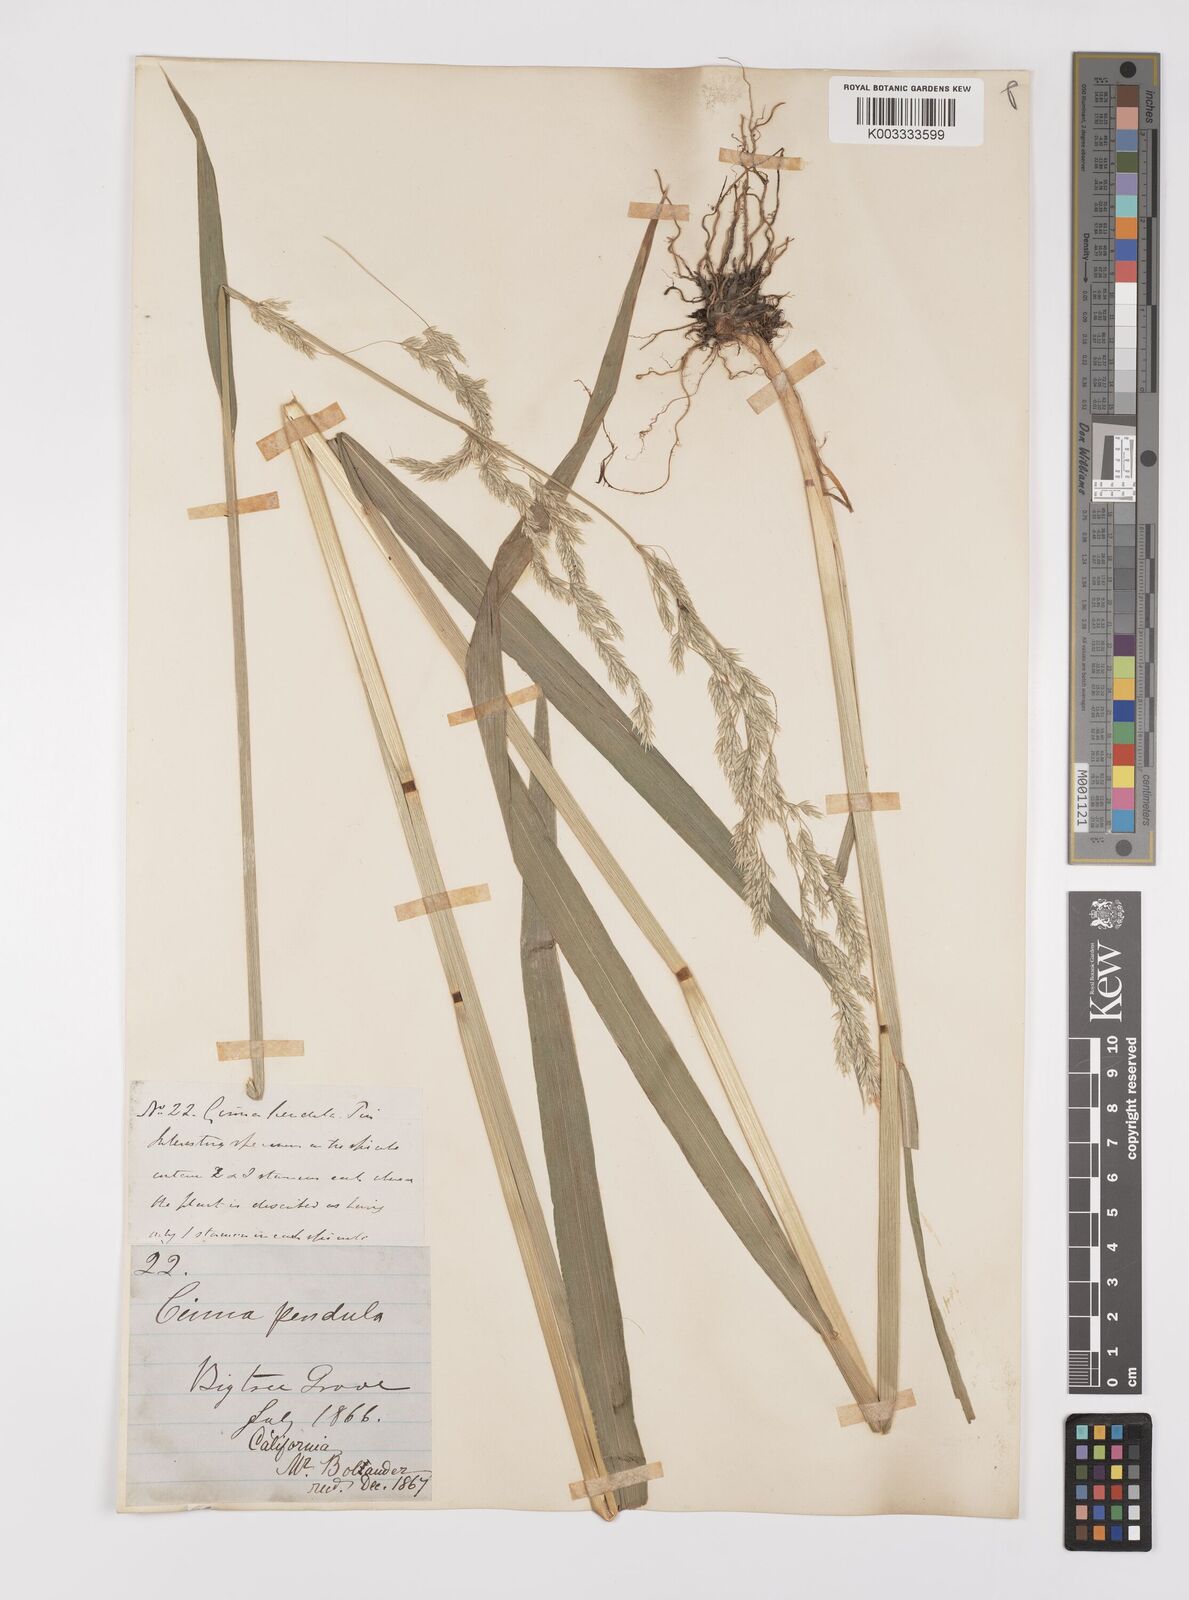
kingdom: Plantae
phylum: Tracheophyta
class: Liliopsida
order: Poales
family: Poaceae
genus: Cinna
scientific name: Cinna latifolia
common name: Drooping woodreed
